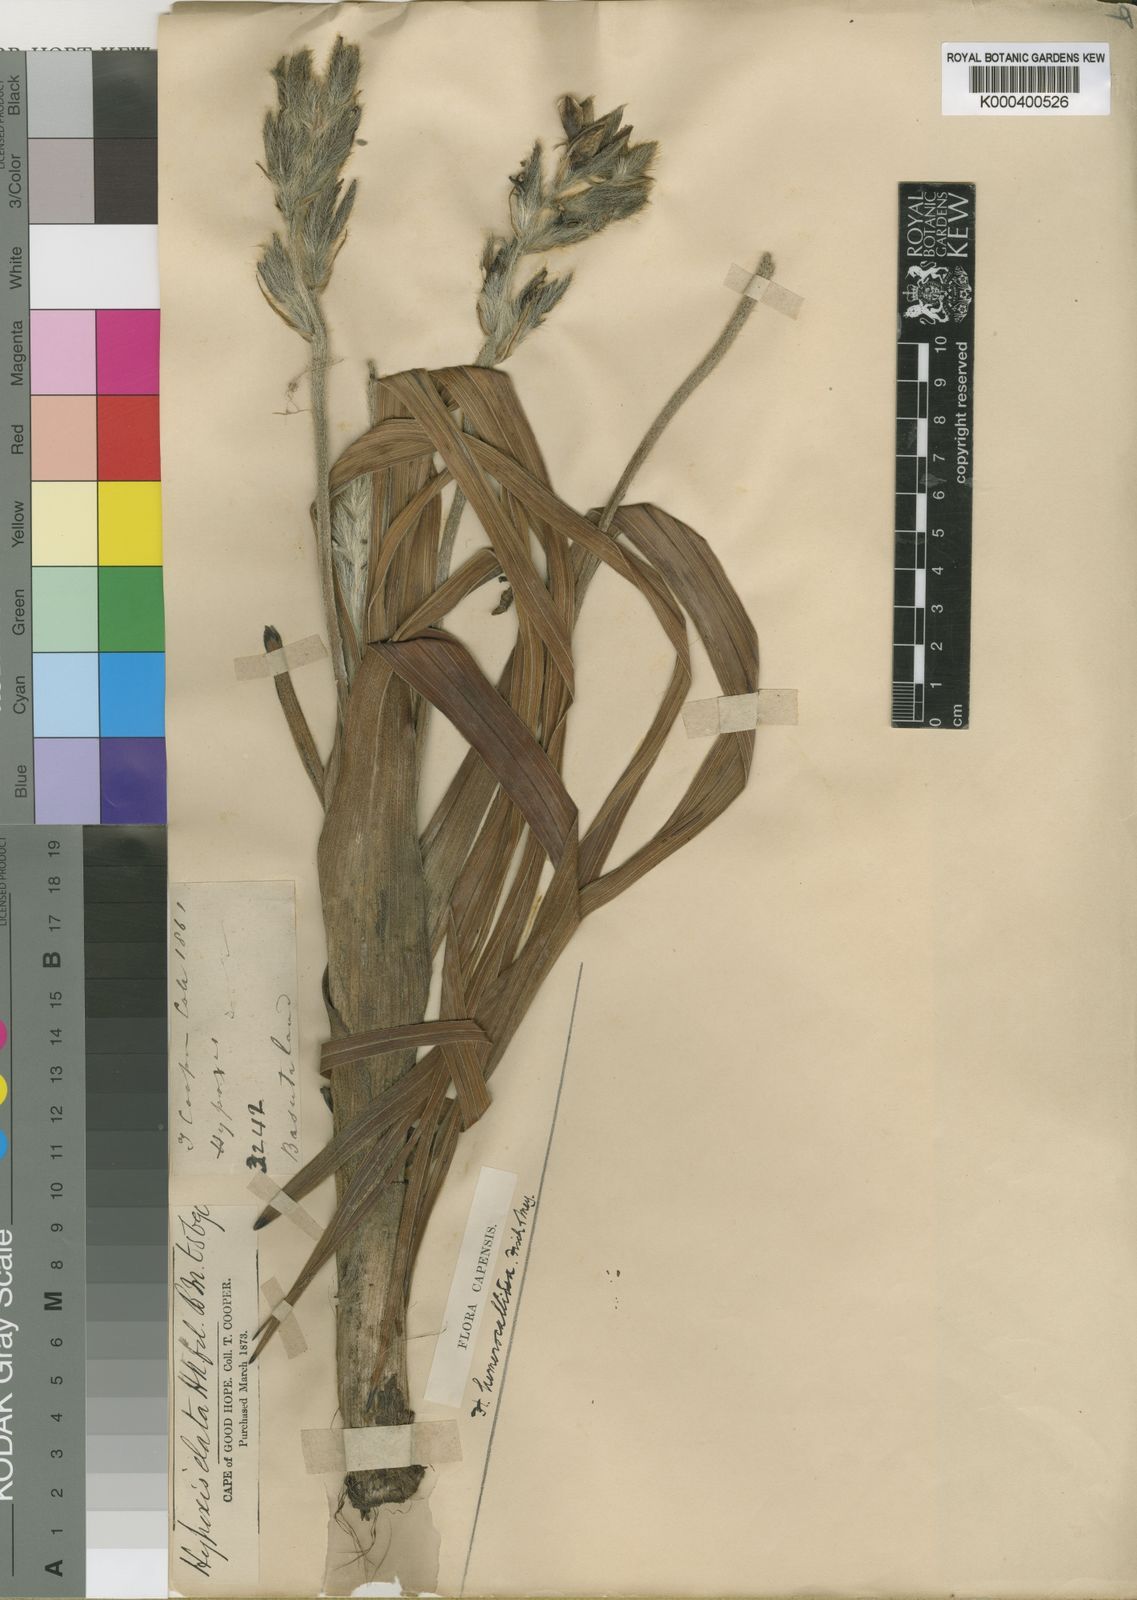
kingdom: Plantae
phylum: Tracheophyta
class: Liliopsida
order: Asparagales
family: Hypoxidaceae
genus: Hypoxis
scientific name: Hypoxis
